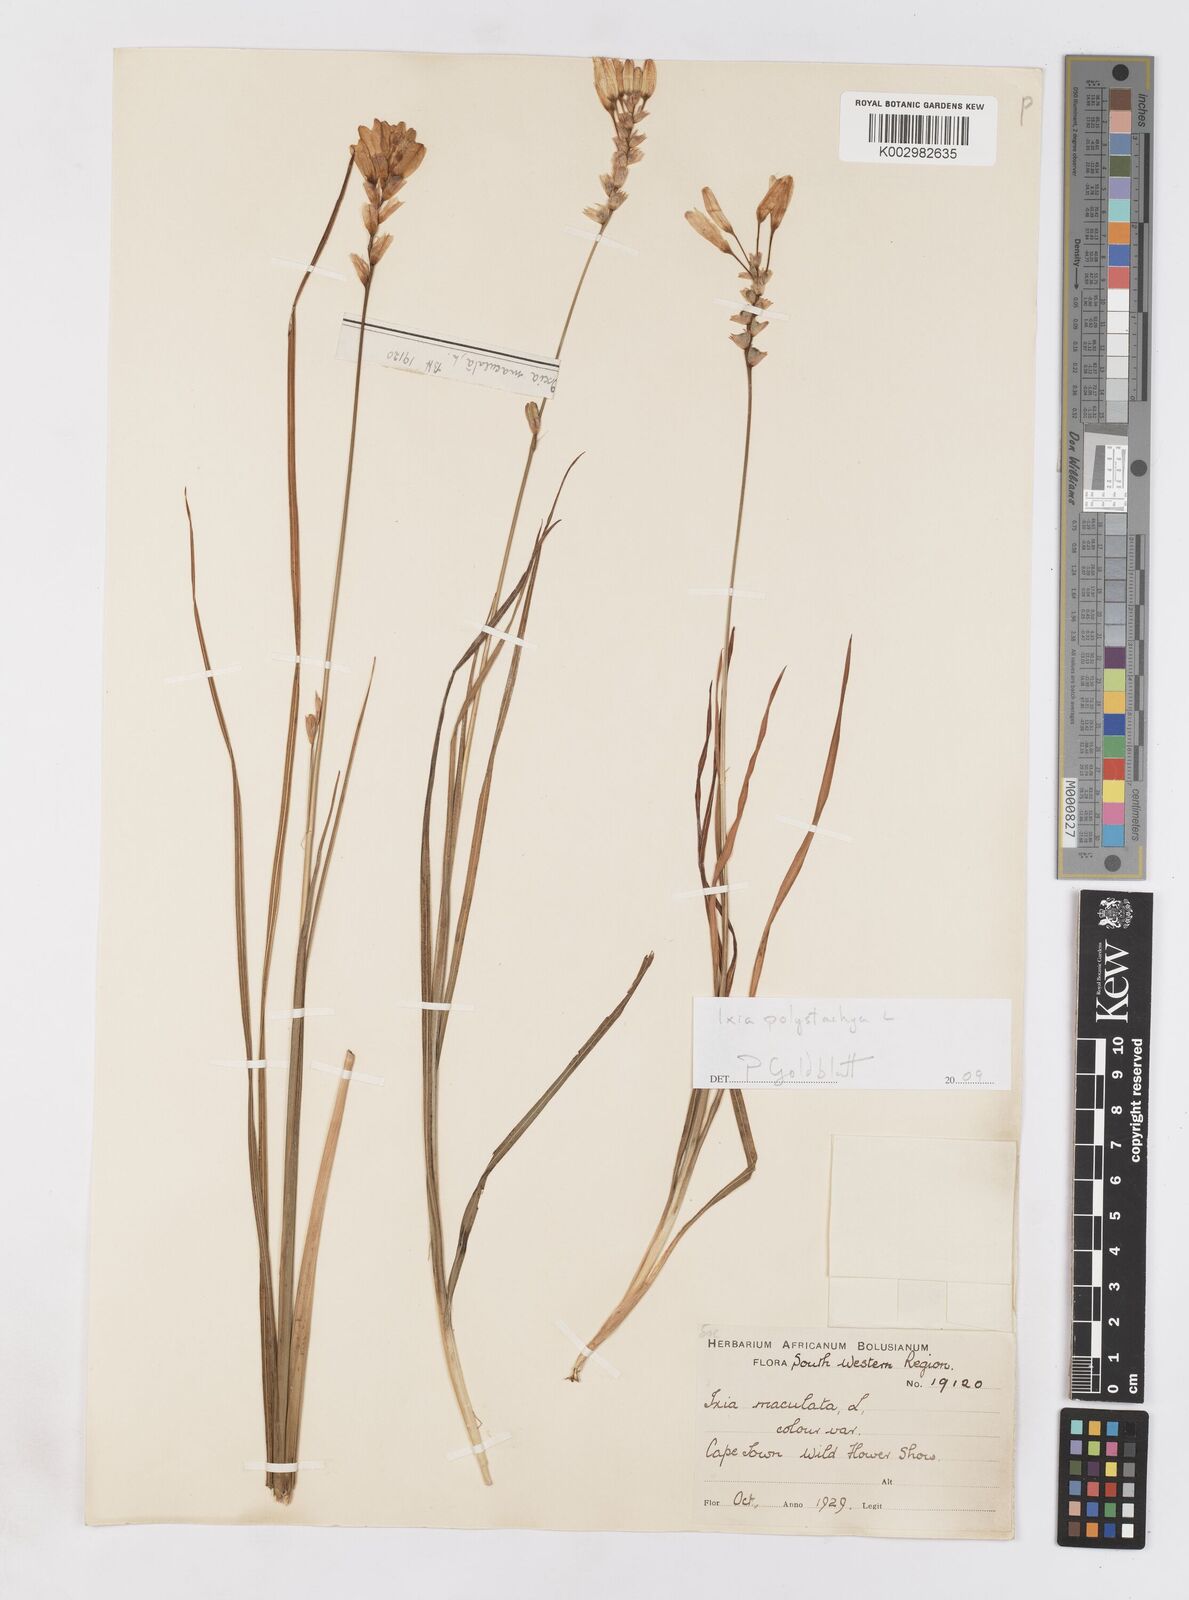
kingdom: Plantae
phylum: Tracheophyta
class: Liliopsida
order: Asparagales
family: Iridaceae
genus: Ixia
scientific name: Ixia polystachya
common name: White-and-yellow-flower cornlily
